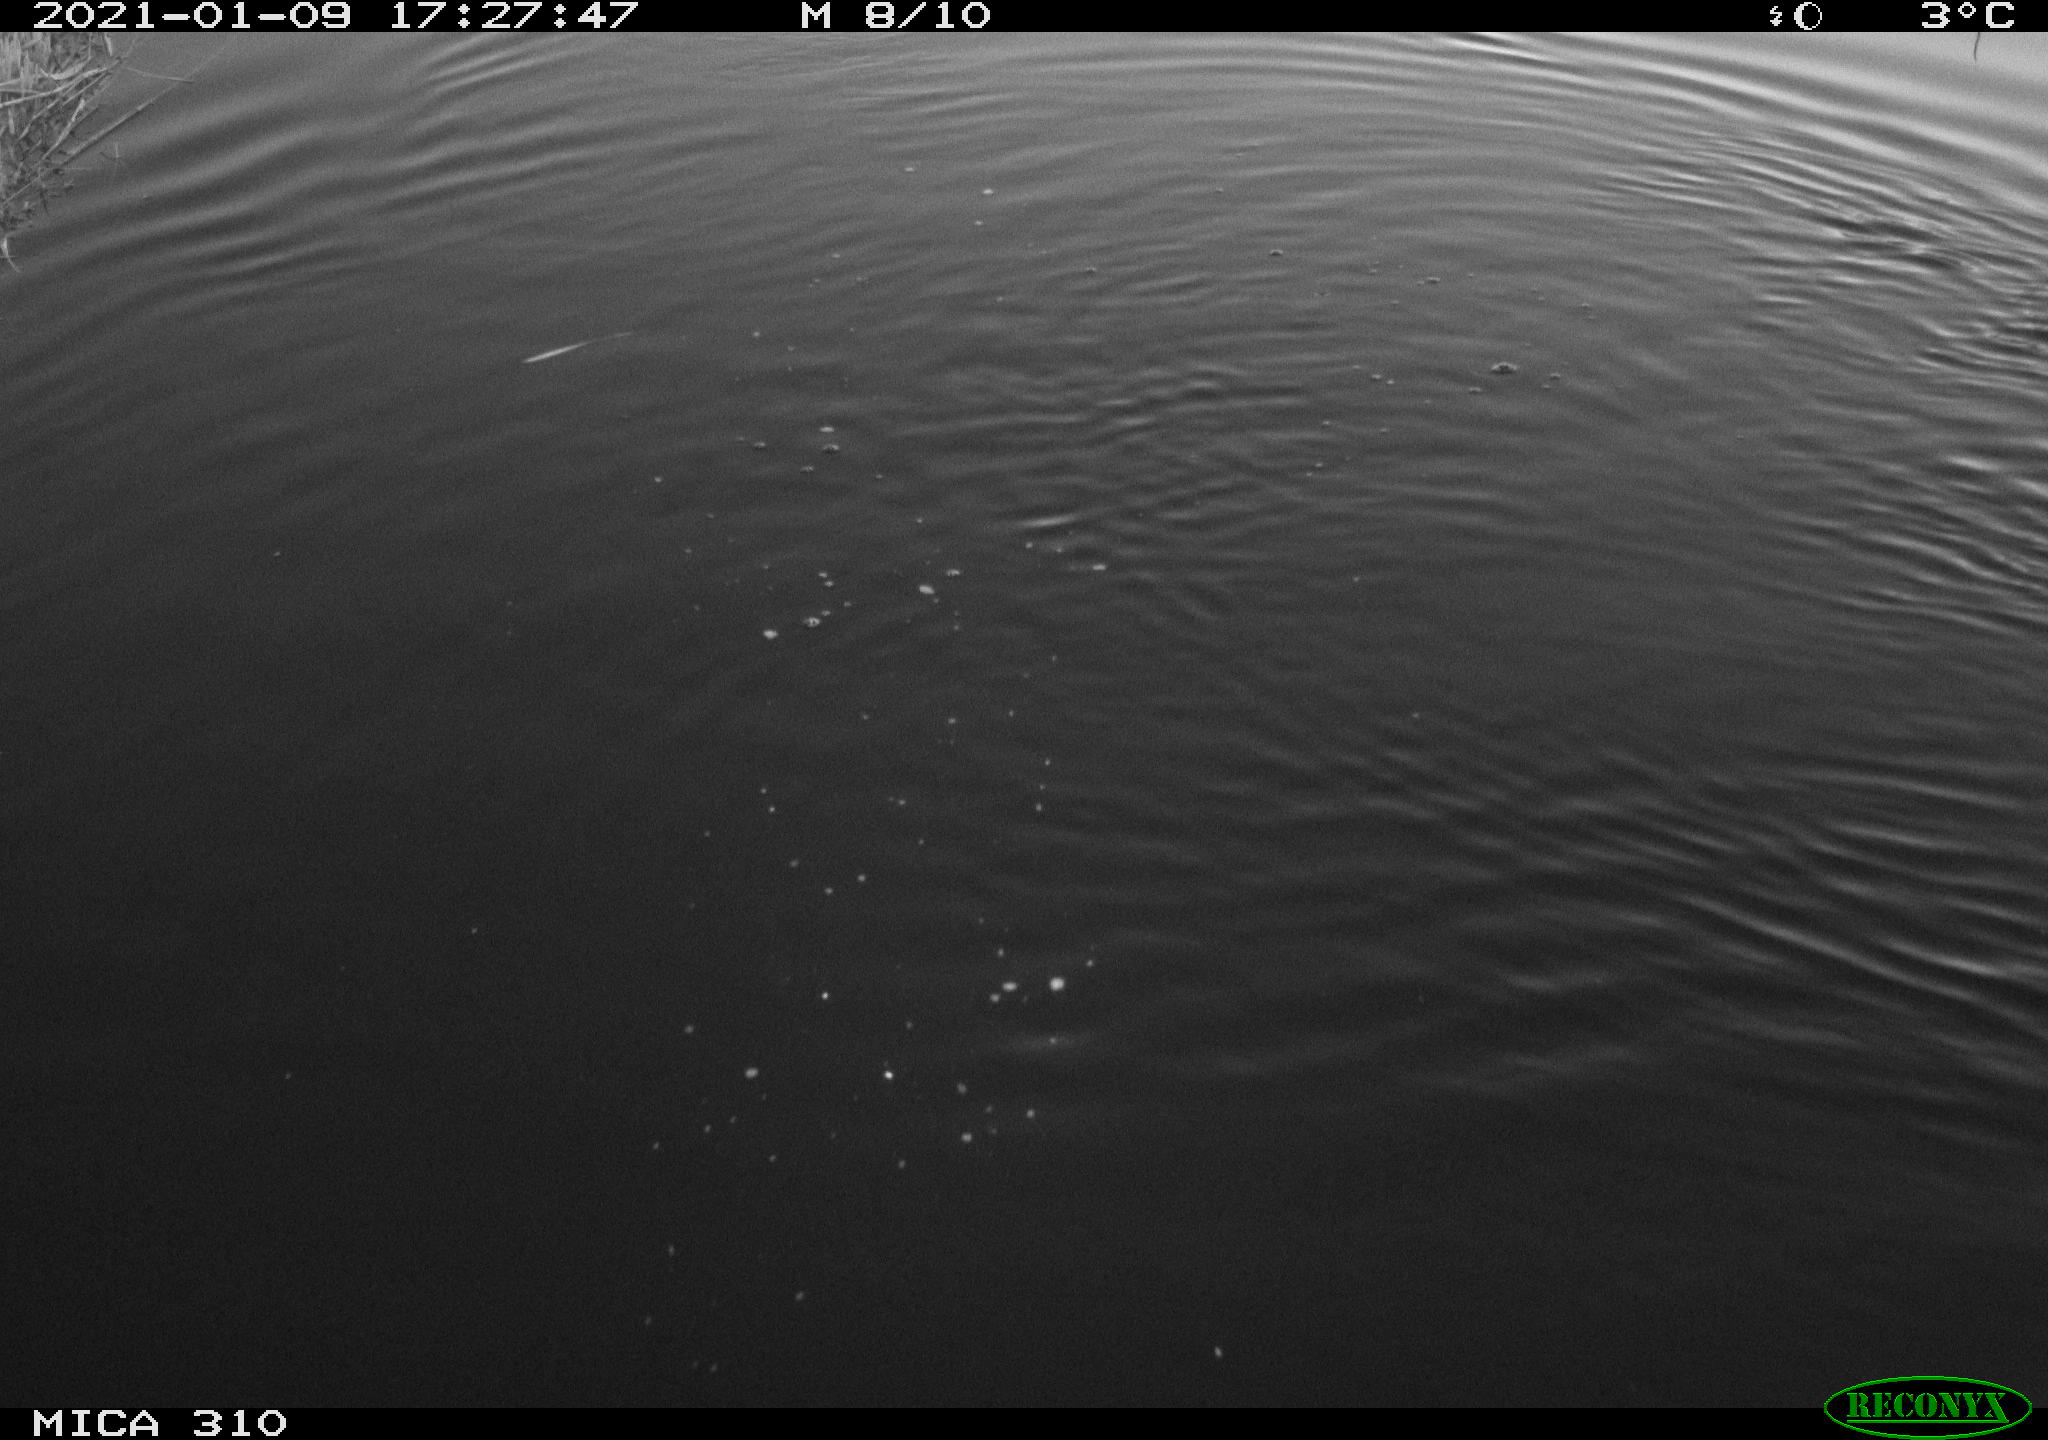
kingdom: Animalia
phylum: Chordata
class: Aves
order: Podicipediformes
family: Podicipedidae
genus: Tachybaptus
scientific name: Tachybaptus ruficollis
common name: Little grebe
